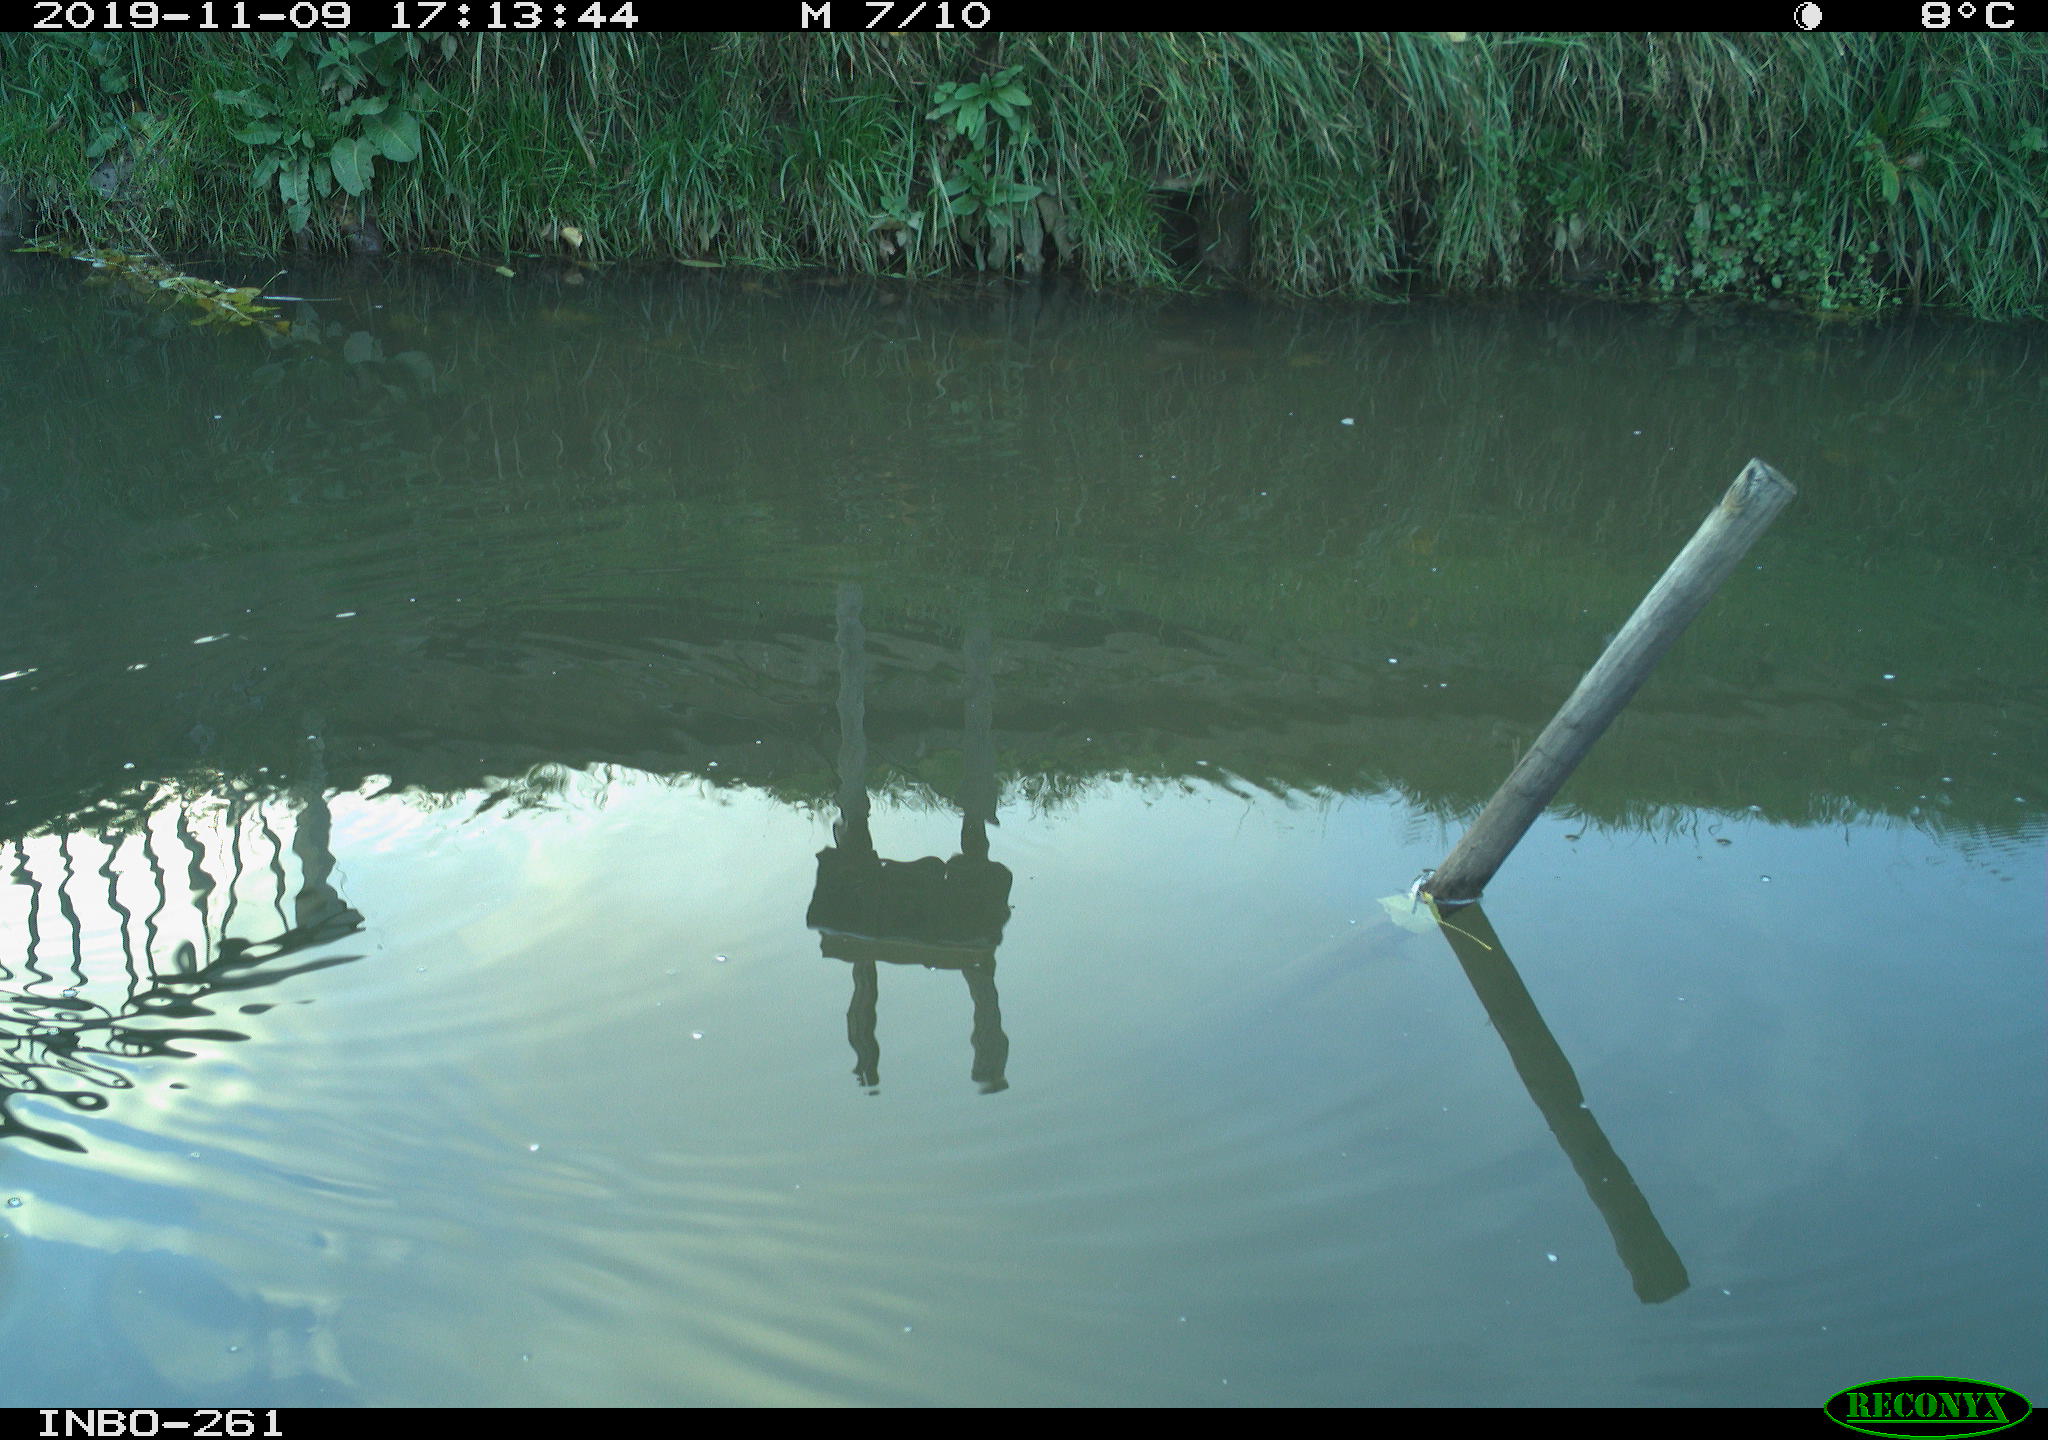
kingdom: Animalia
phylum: Chordata
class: Aves
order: Gruiformes
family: Rallidae
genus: Gallinula
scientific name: Gallinula chloropus
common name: Common moorhen
